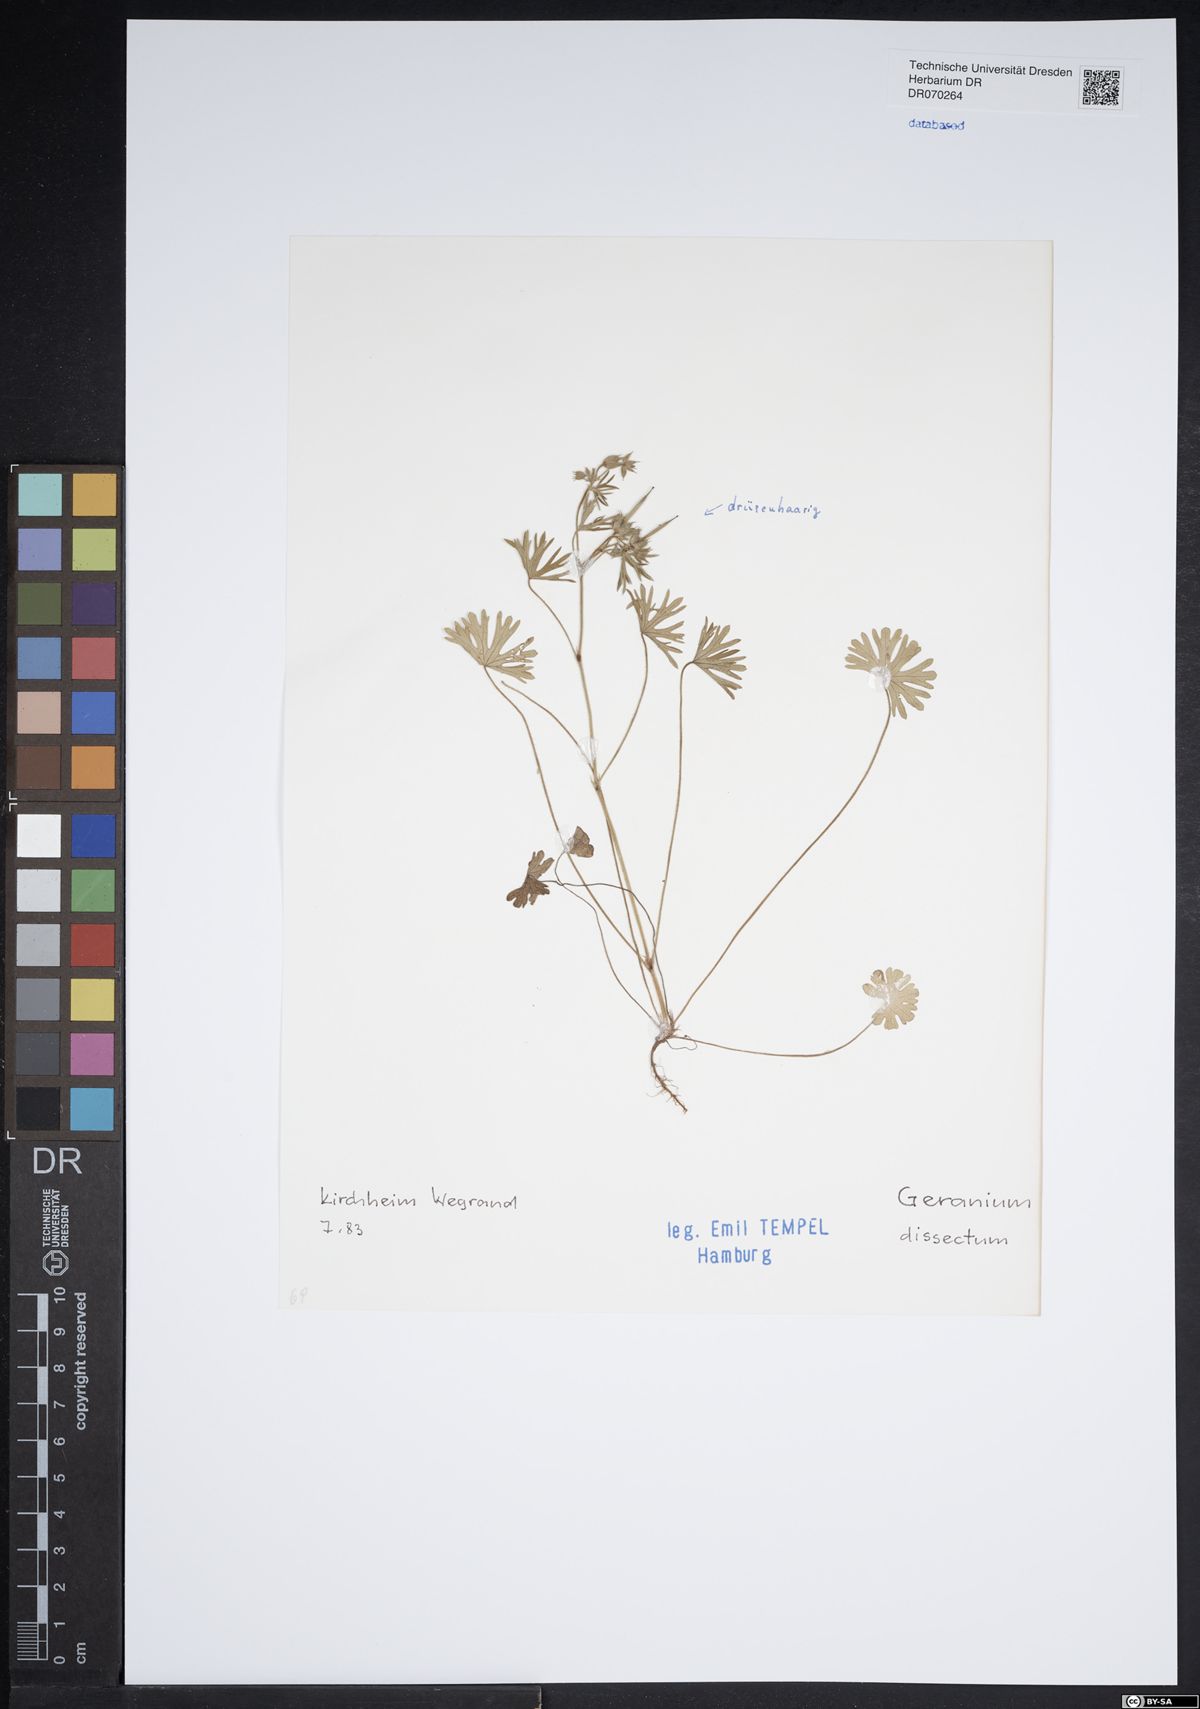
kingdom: Plantae
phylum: Tracheophyta
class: Magnoliopsida
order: Geraniales
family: Geraniaceae
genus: Geranium
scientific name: Geranium dissectum
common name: Cut-leaved crane's-bill
